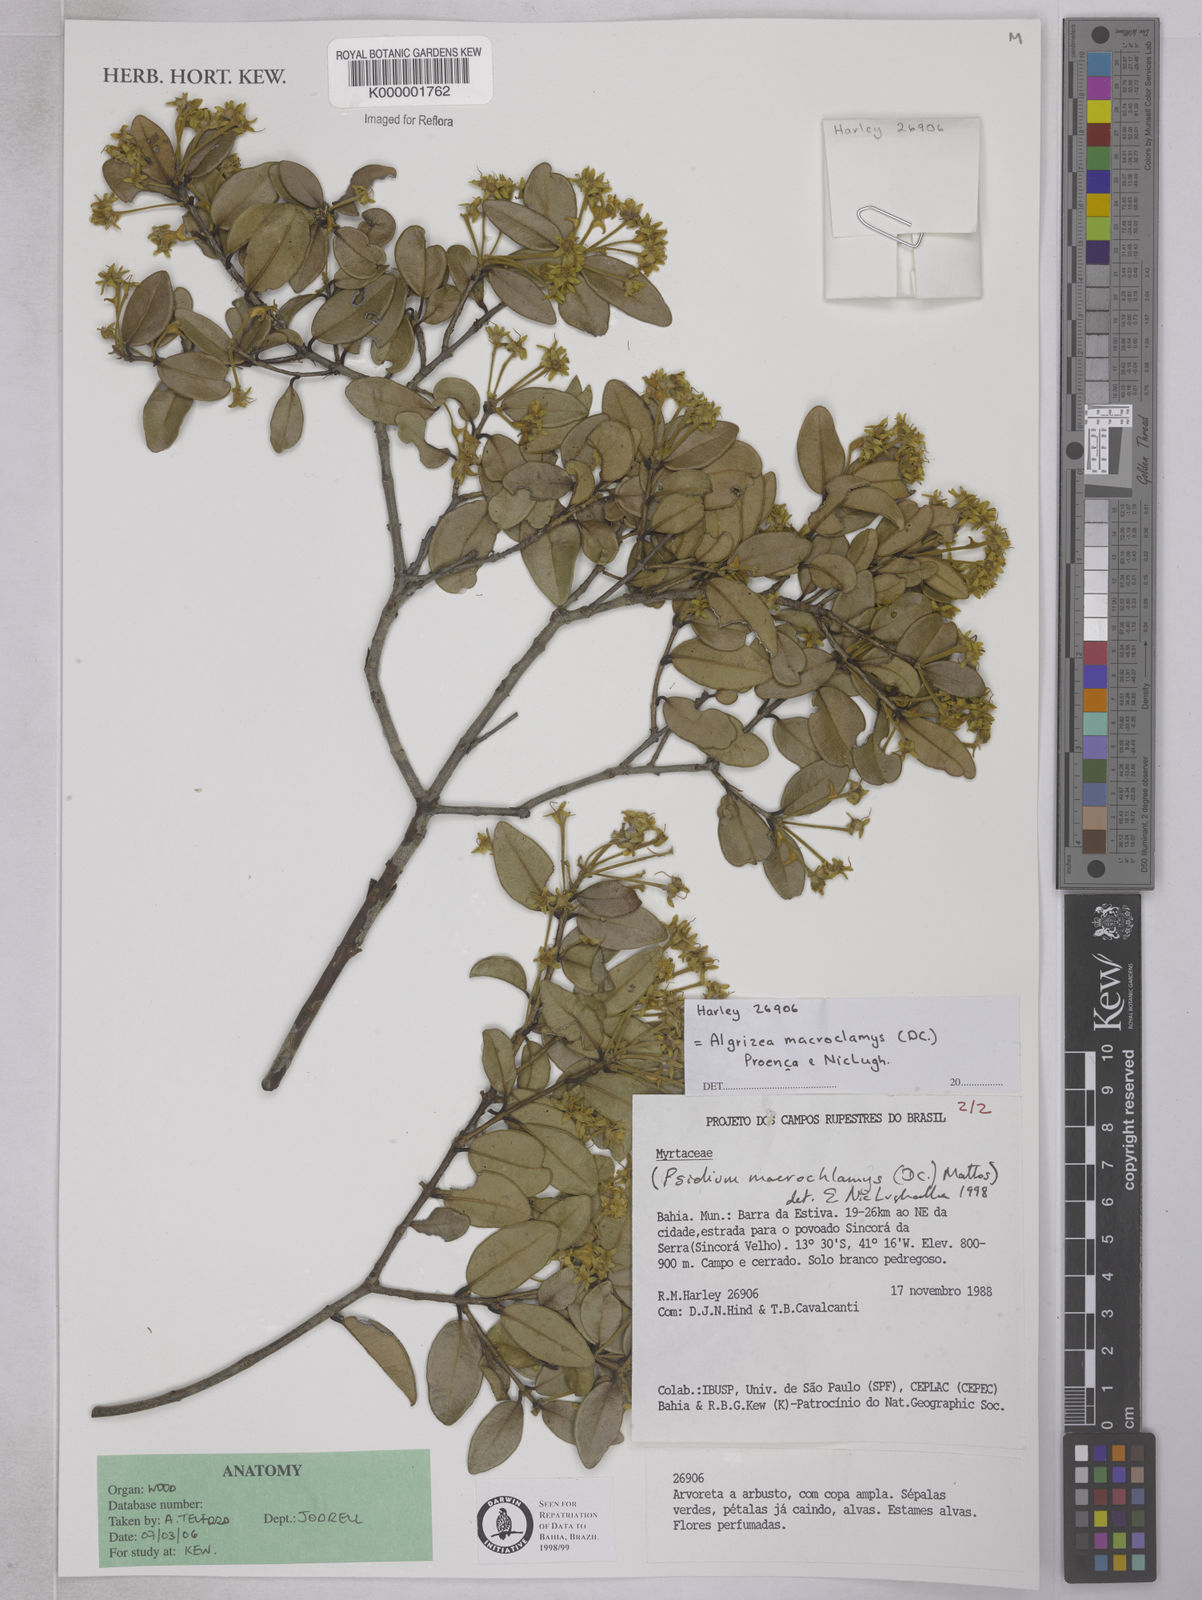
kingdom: Plantae
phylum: Tracheophyta
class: Magnoliopsida
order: Myrtales
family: Myrtaceae
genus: Algrizea
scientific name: Algrizea
